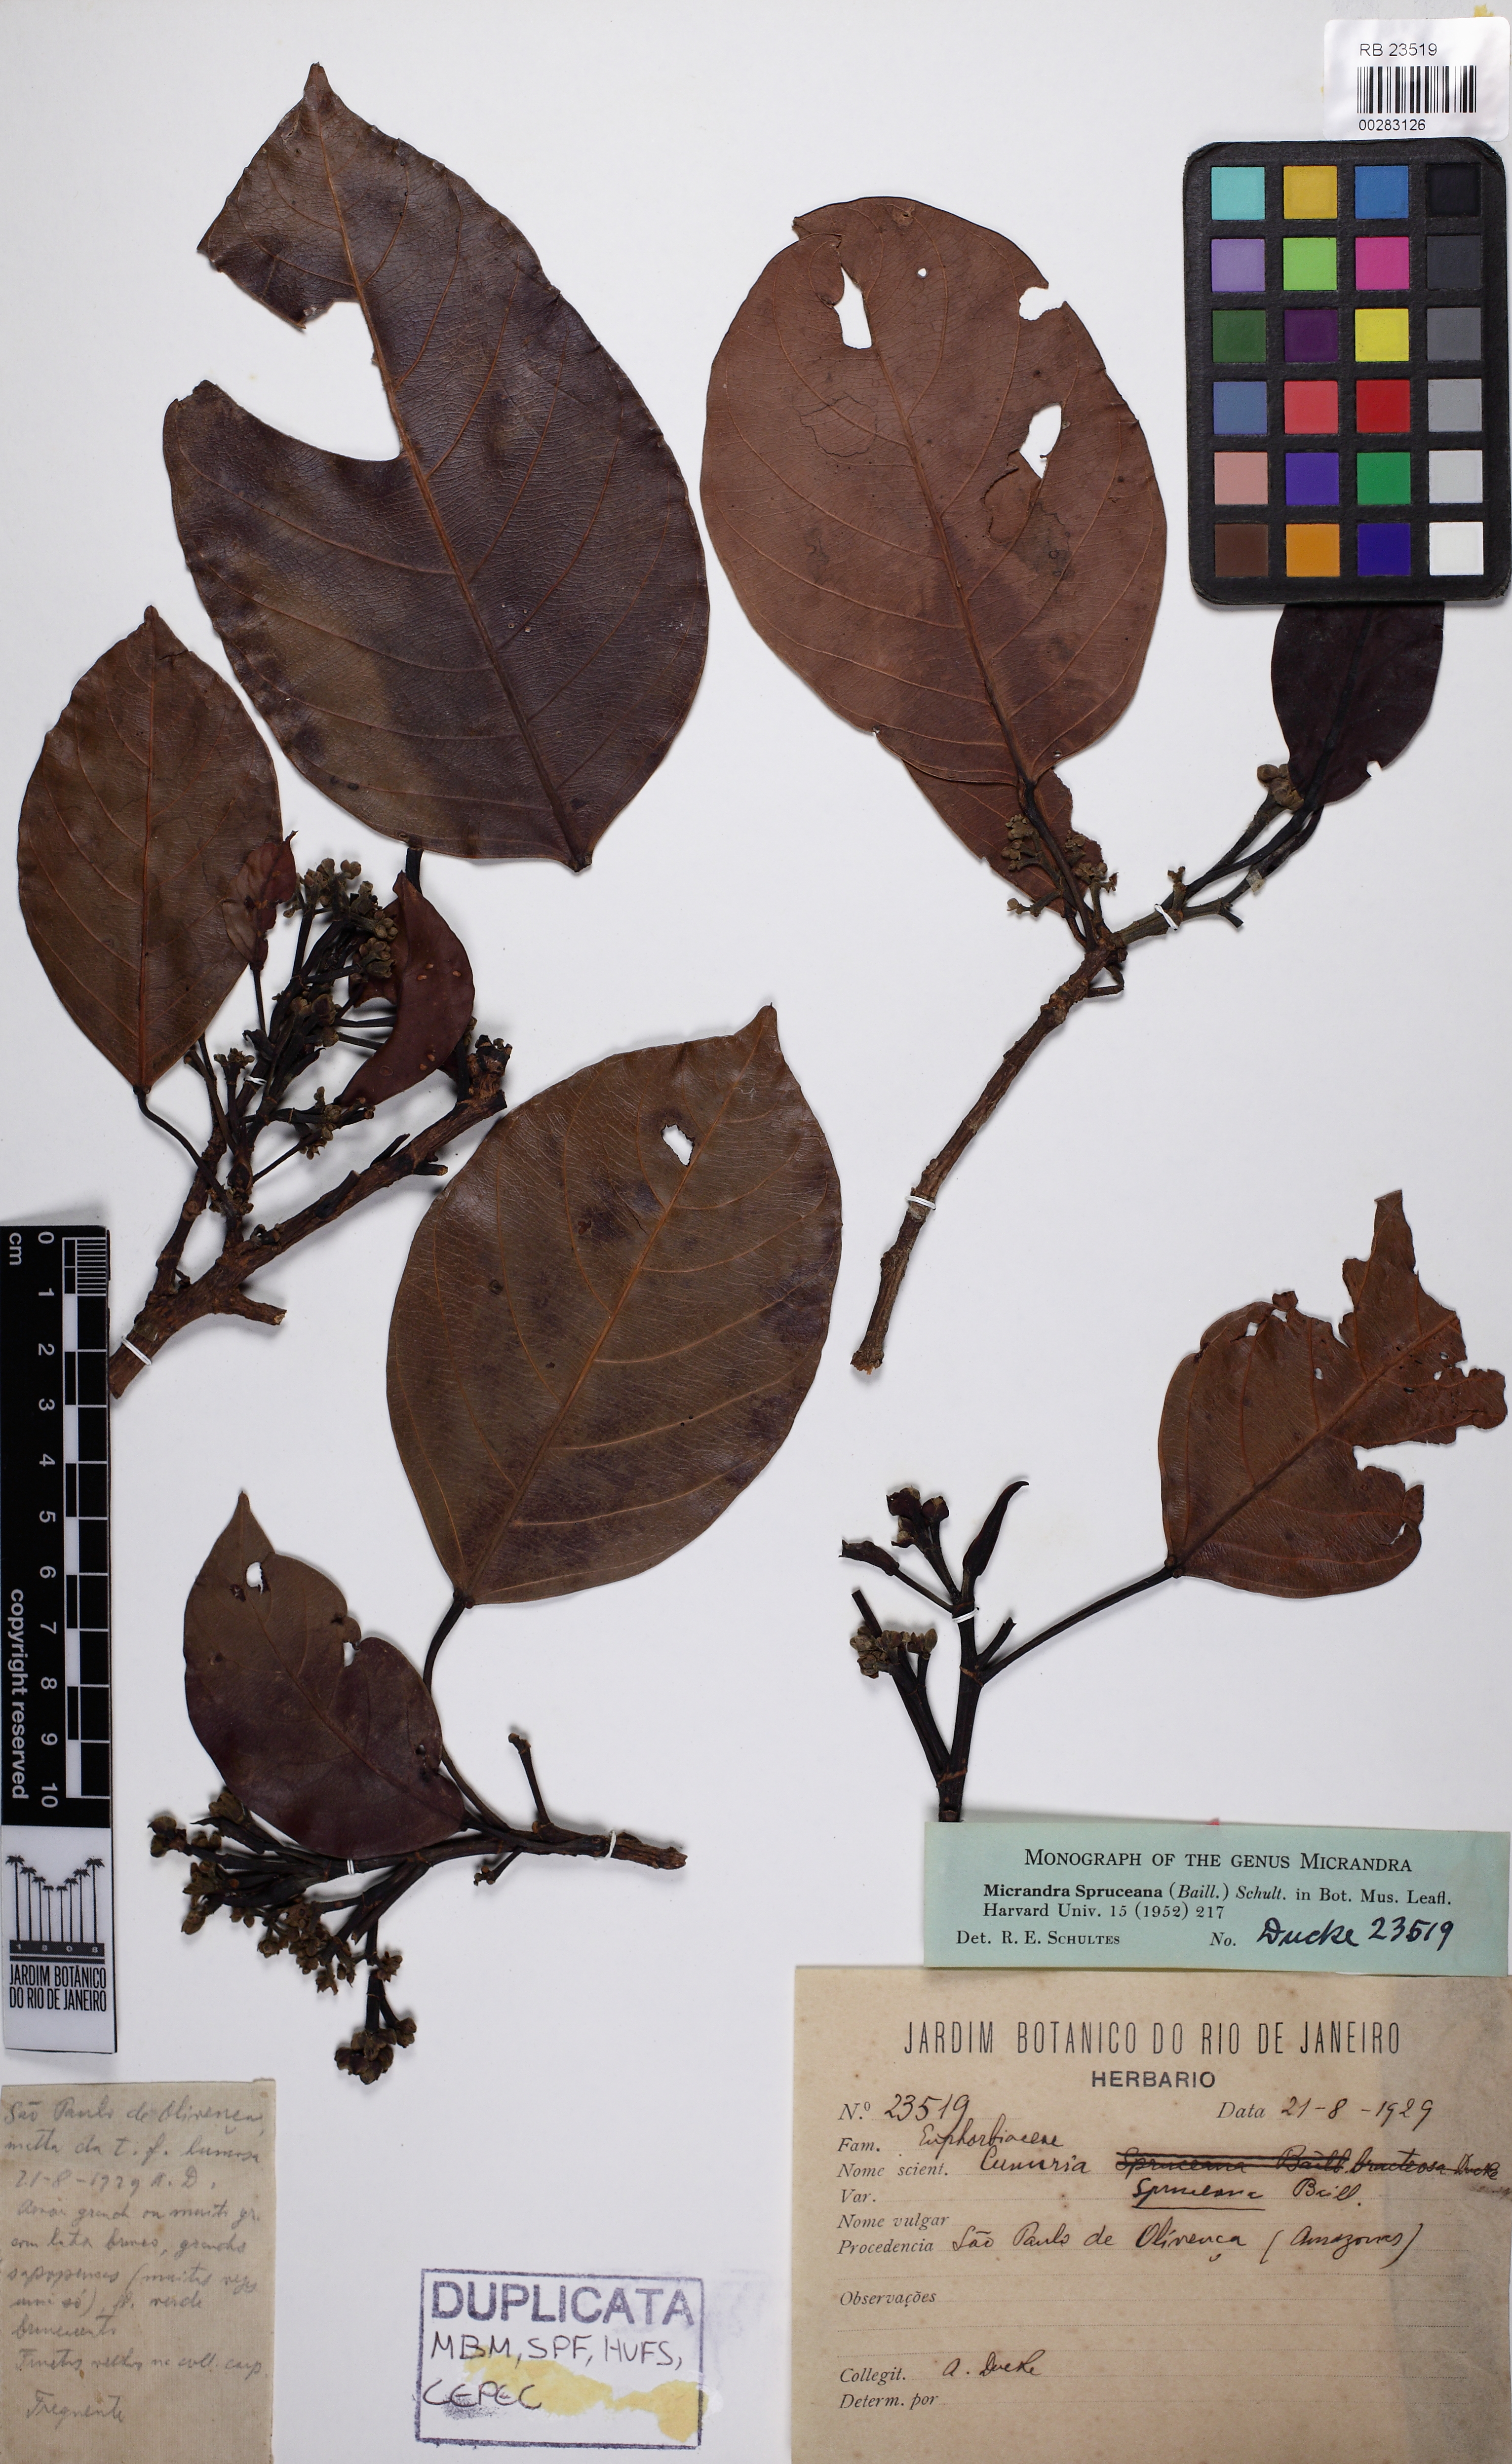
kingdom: Plantae
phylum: Tracheophyta
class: Magnoliopsida
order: Malpighiales
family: Euphorbiaceae
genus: Micrandra
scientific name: Micrandra spruceana
